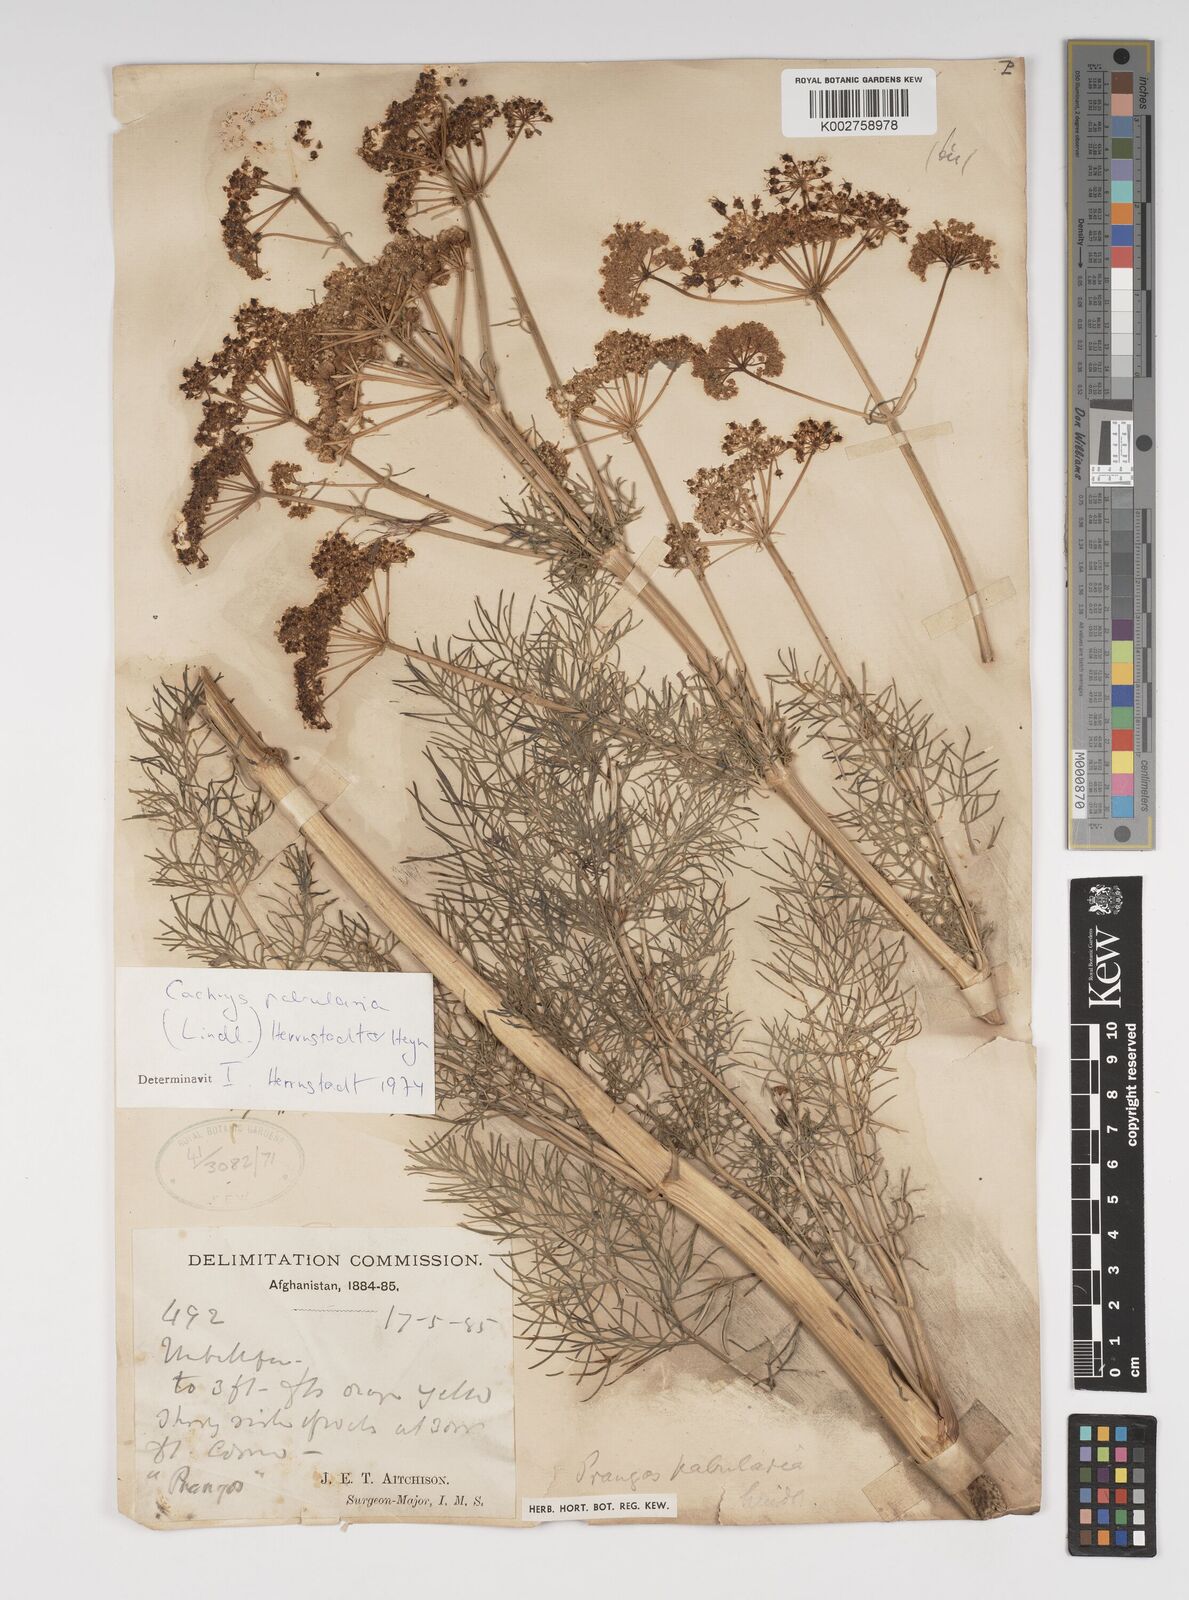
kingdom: Plantae
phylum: Tracheophyta
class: Magnoliopsida
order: Apiales
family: Apiaceae
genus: Prangos
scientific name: Prangos pabularia
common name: Yugan
